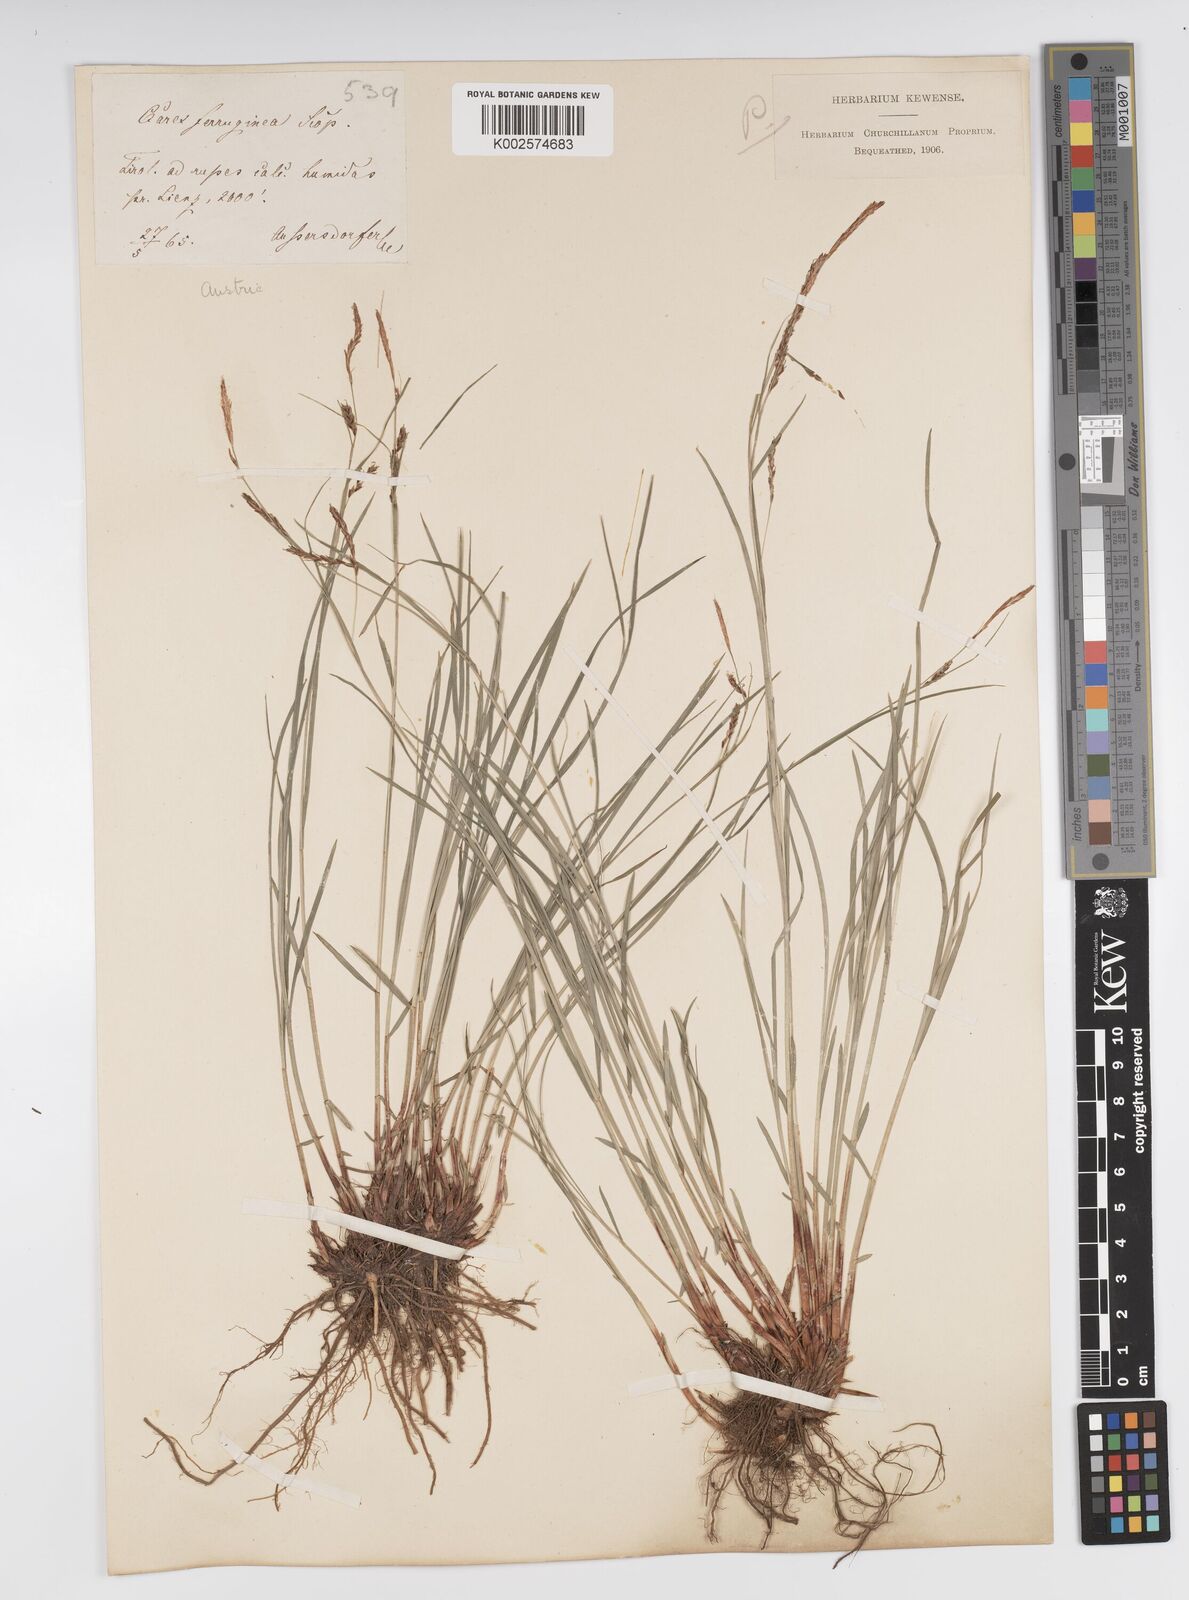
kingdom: Plantae
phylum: Tracheophyta
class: Liliopsida
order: Poales
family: Cyperaceae
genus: Carex
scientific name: Carex ferruginea
